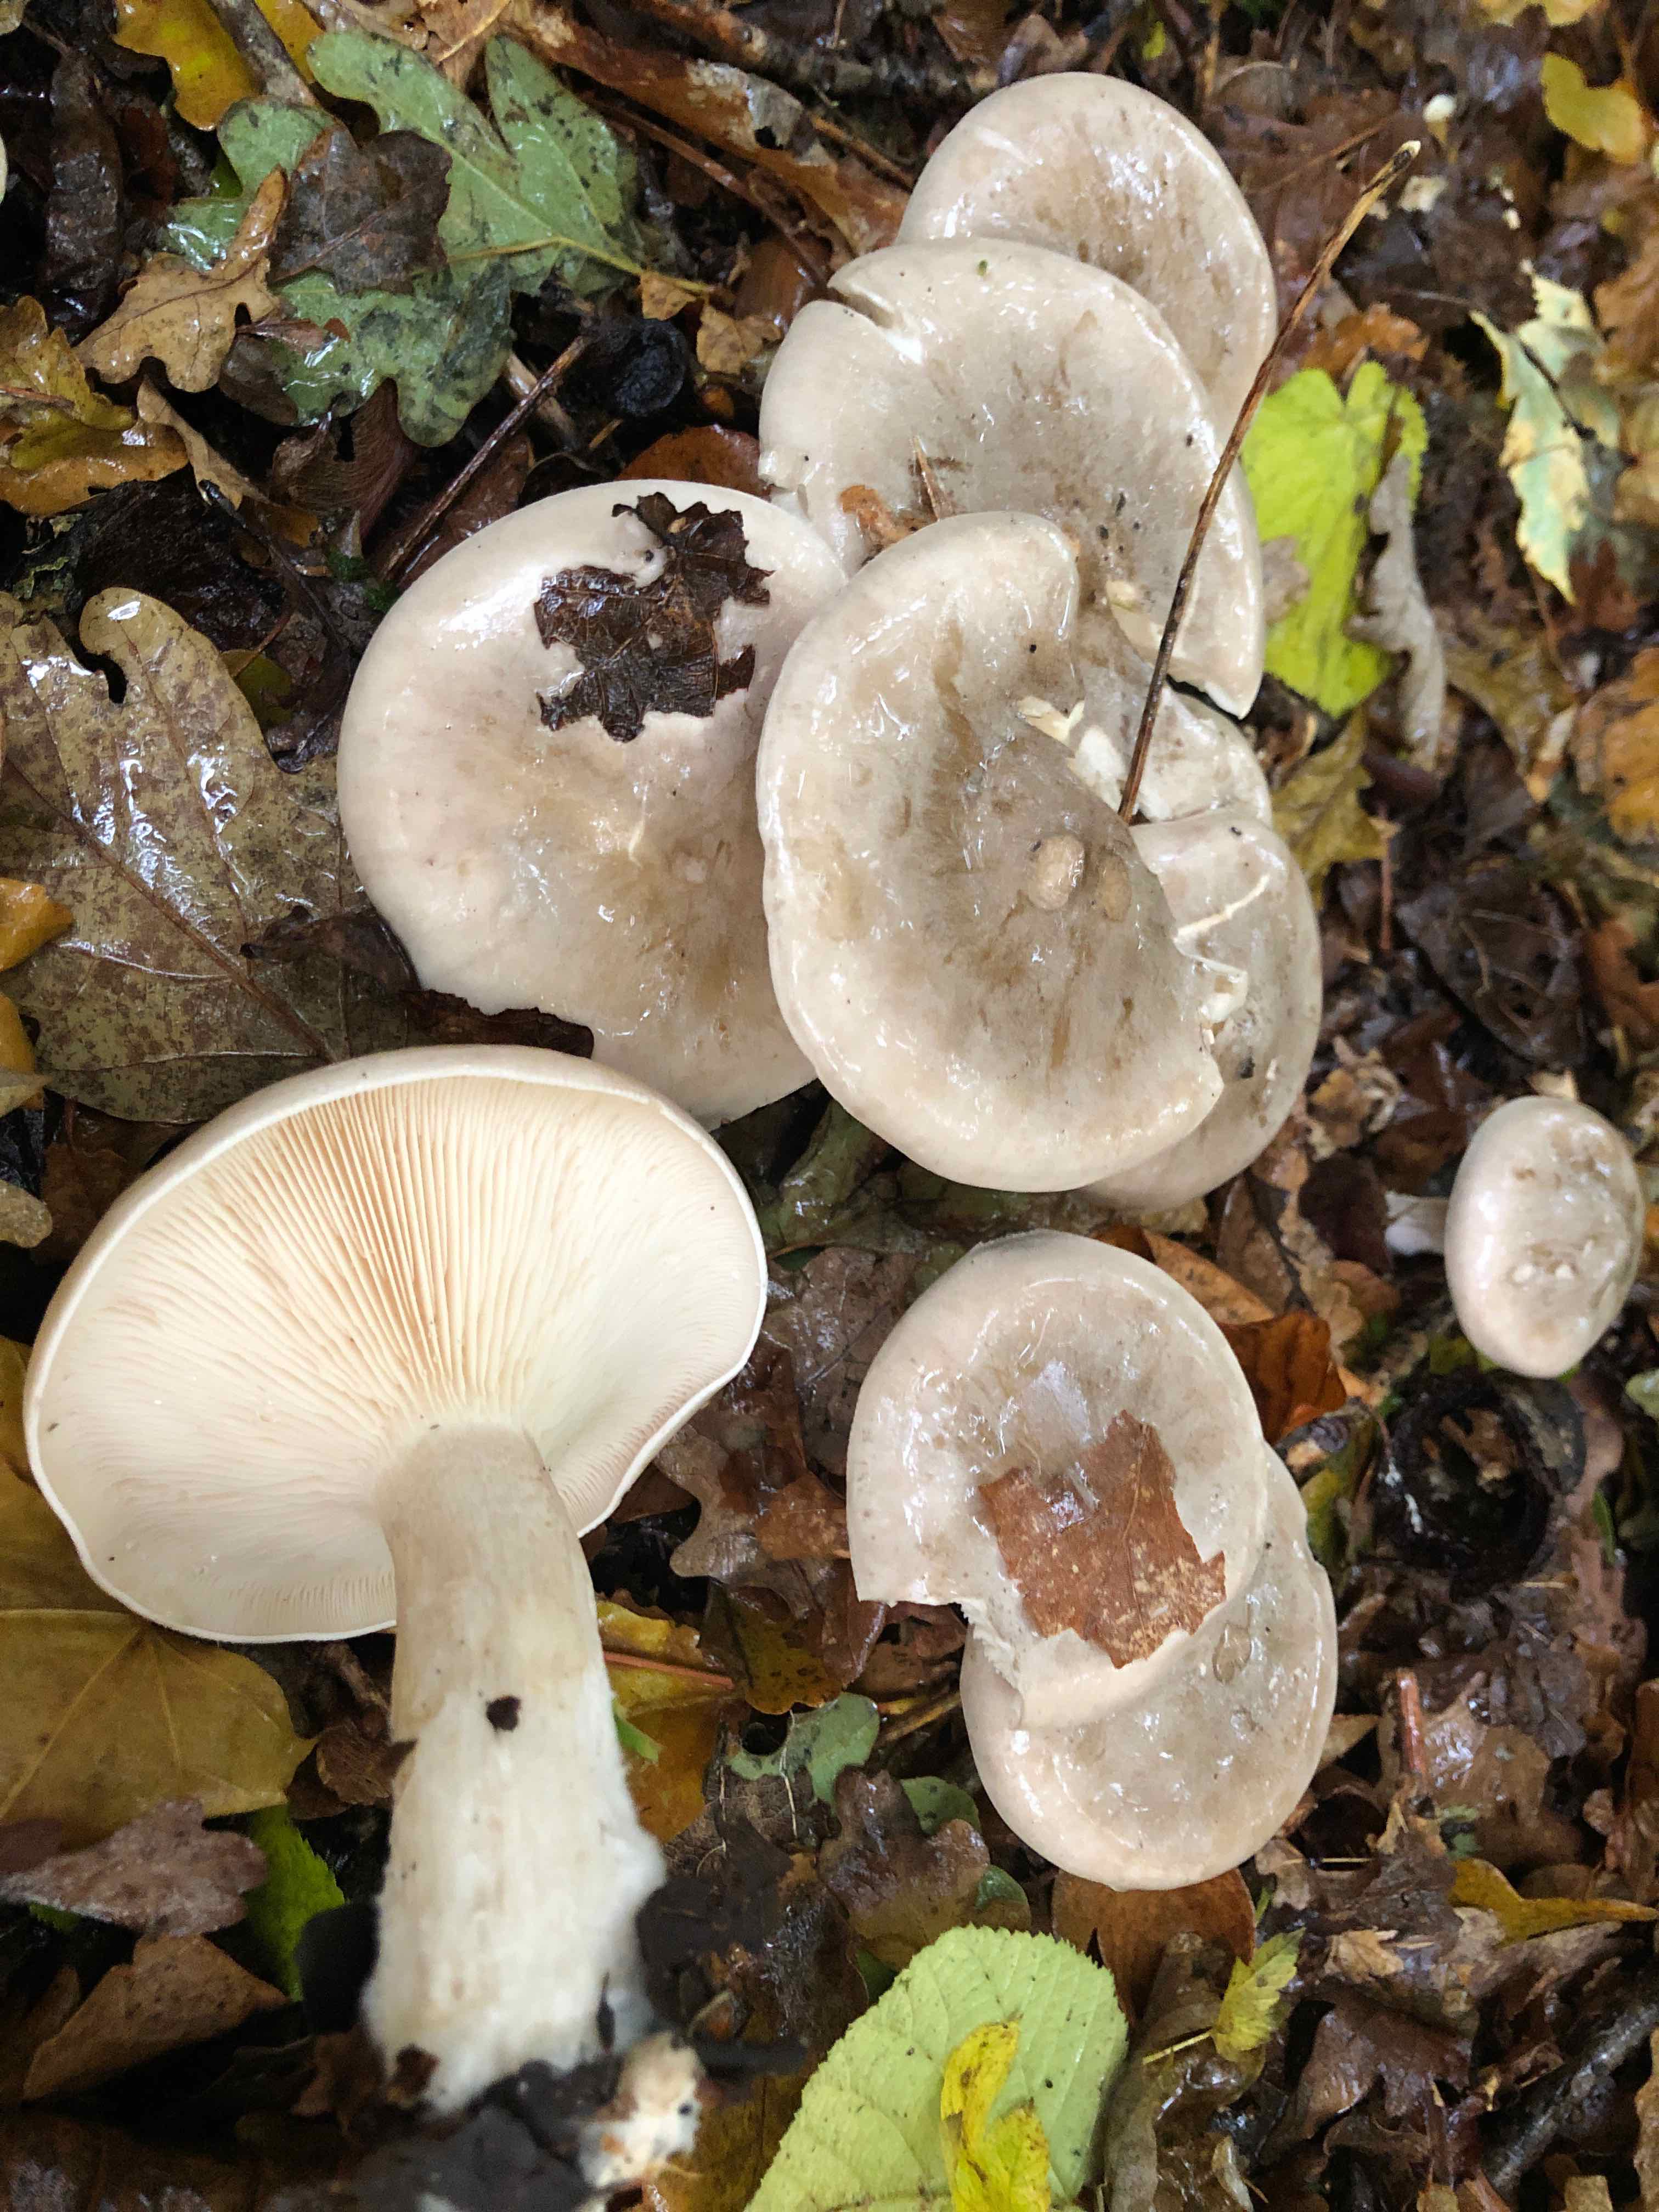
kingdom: Fungi
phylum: Basidiomycota
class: Agaricomycetes
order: Agaricales
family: Tricholomataceae
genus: Clitocybe
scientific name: Clitocybe nebularis
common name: tåge-tragthat
